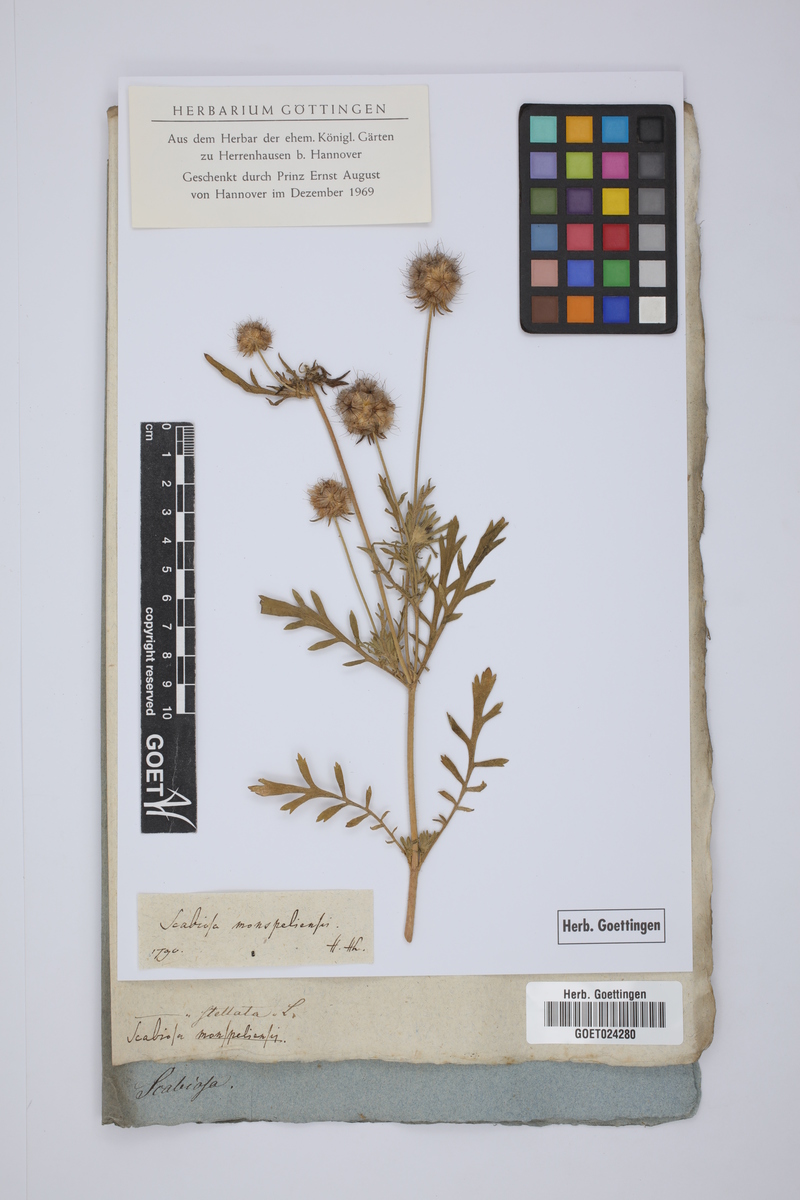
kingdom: Plantae
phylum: Tracheophyta
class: Magnoliopsida
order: Dipsacales
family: Caprifoliaceae
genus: Lomelosia
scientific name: Lomelosia stellata
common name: Teasel
